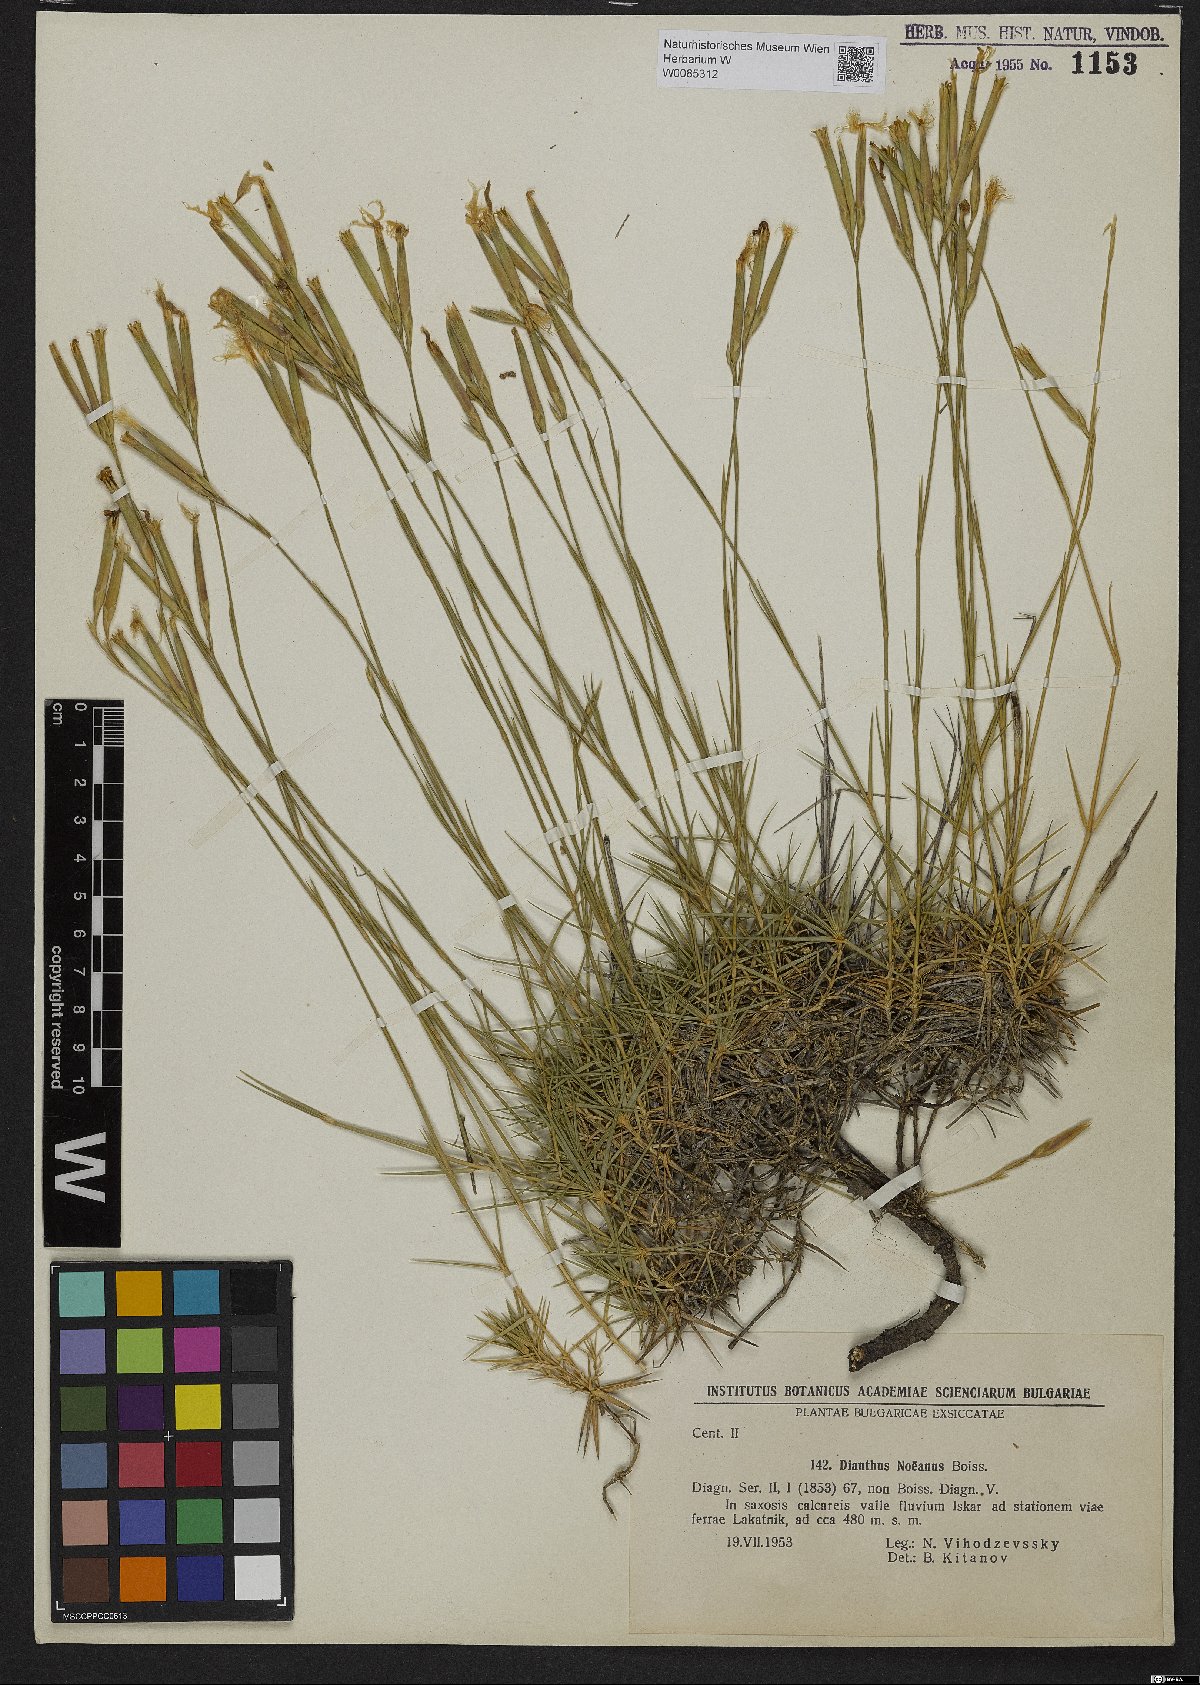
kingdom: Plantae
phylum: Tracheophyta
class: Magnoliopsida
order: Caryophyllales
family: Caryophyllaceae
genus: Dianthus
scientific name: Dianthus noeanus
